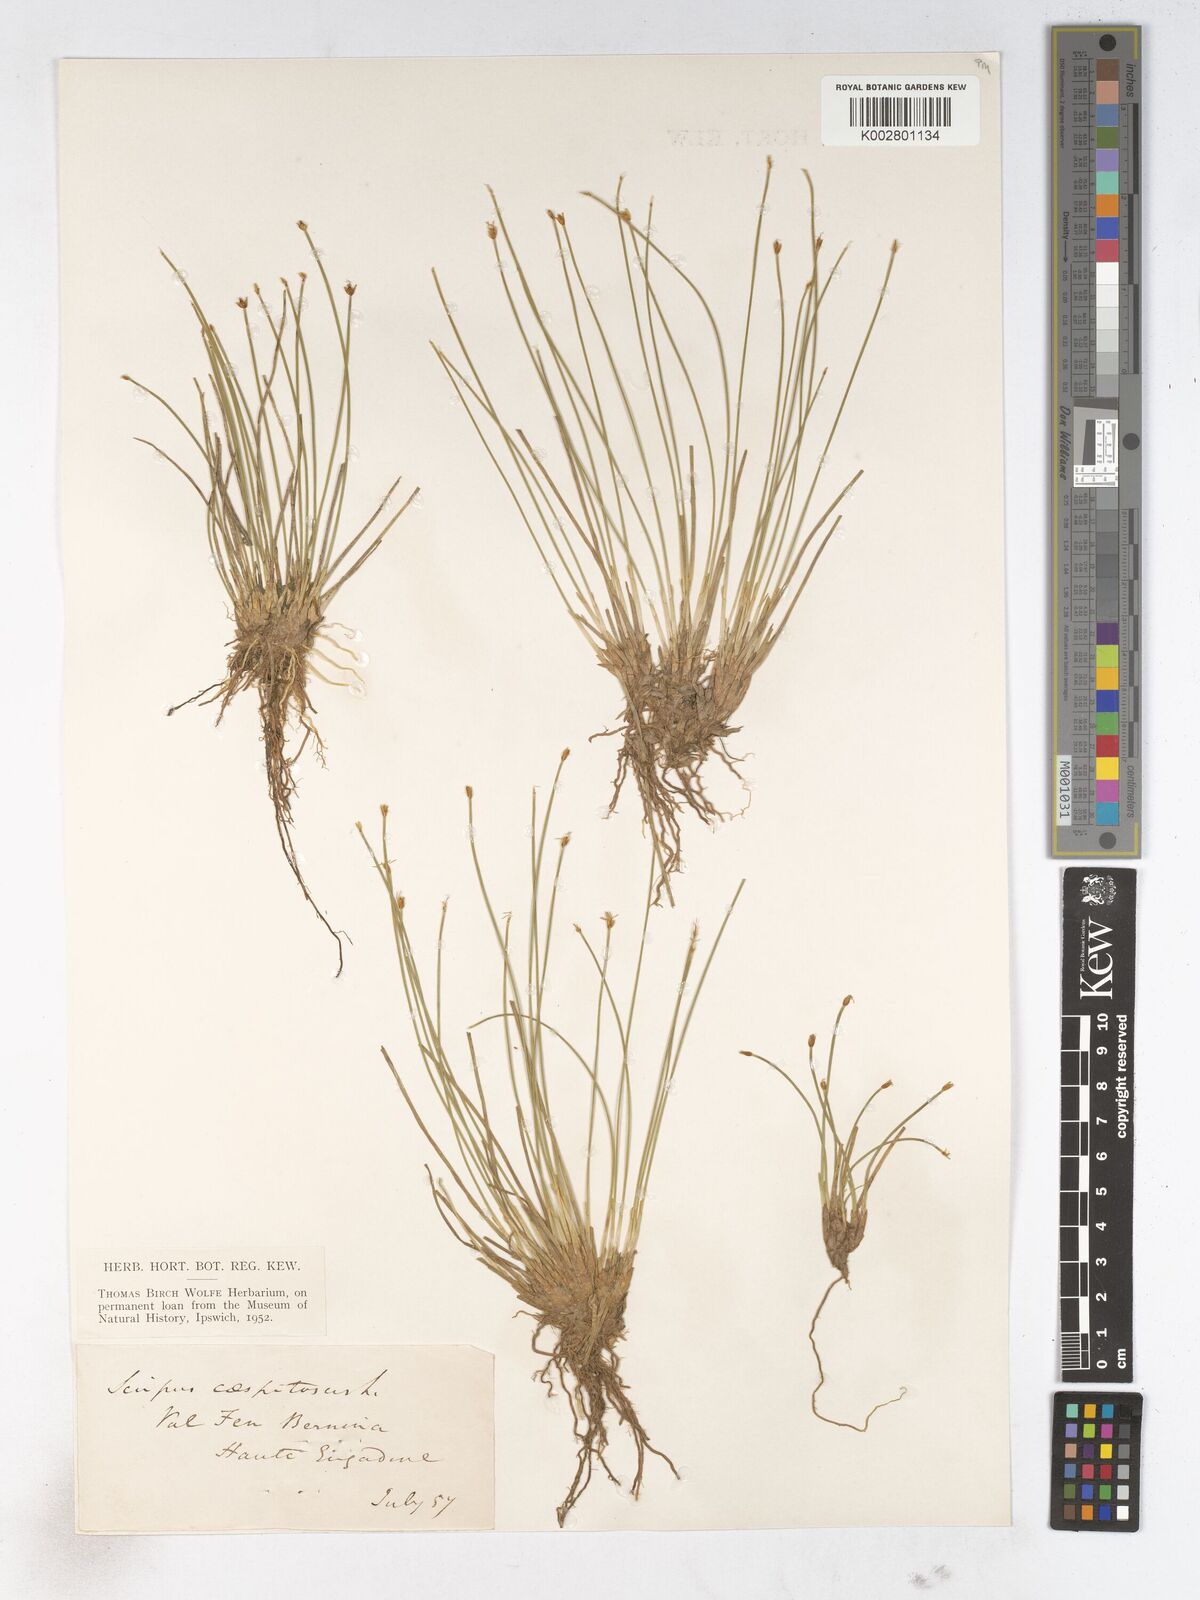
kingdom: Plantae
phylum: Tracheophyta
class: Liliopsida
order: Poales
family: Cyperaceae
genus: Trichophorum
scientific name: Trichophorum cespitosum
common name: Cespitose bulrush
